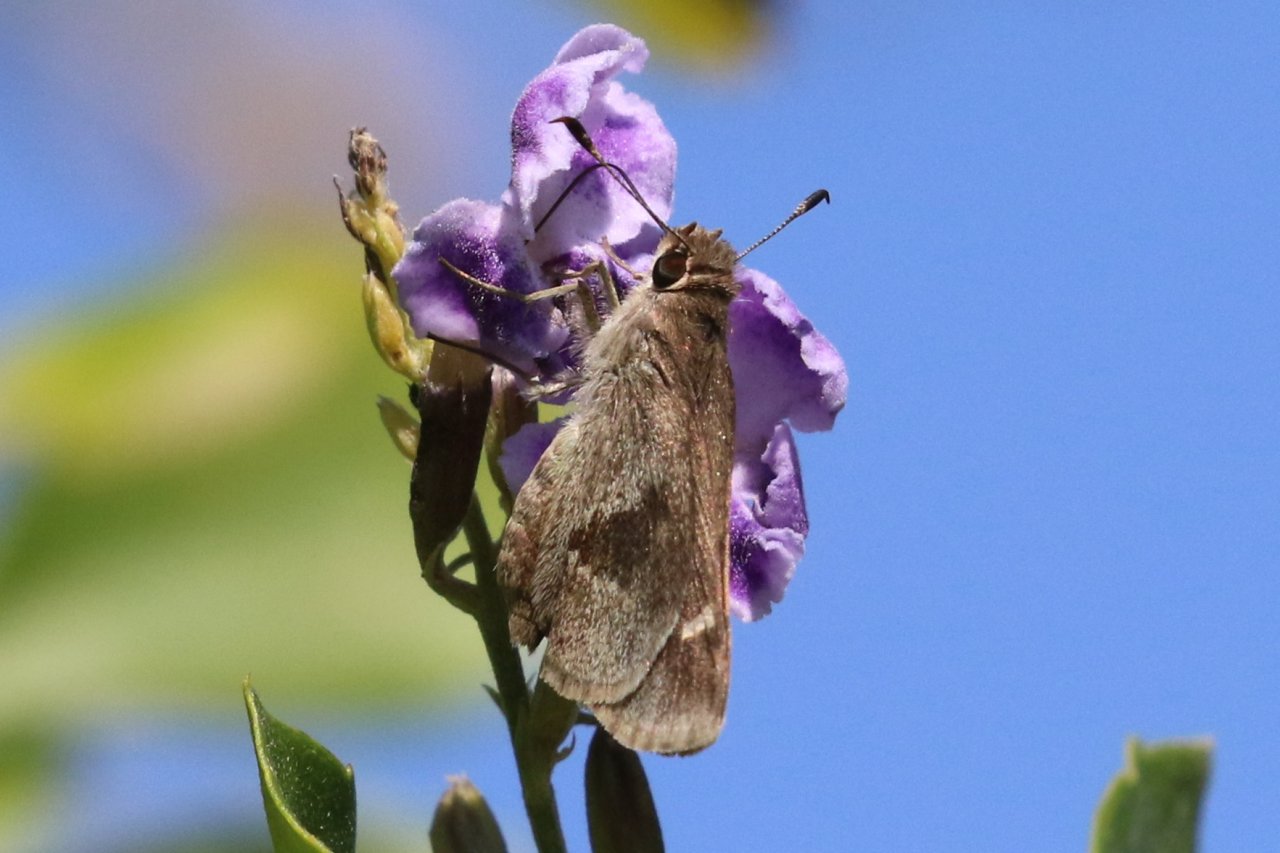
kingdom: Animalia
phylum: Arthropoda
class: Insecta
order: Lepidoptera
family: Hesperiidae
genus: Lerodea
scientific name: Lerodea arabus
